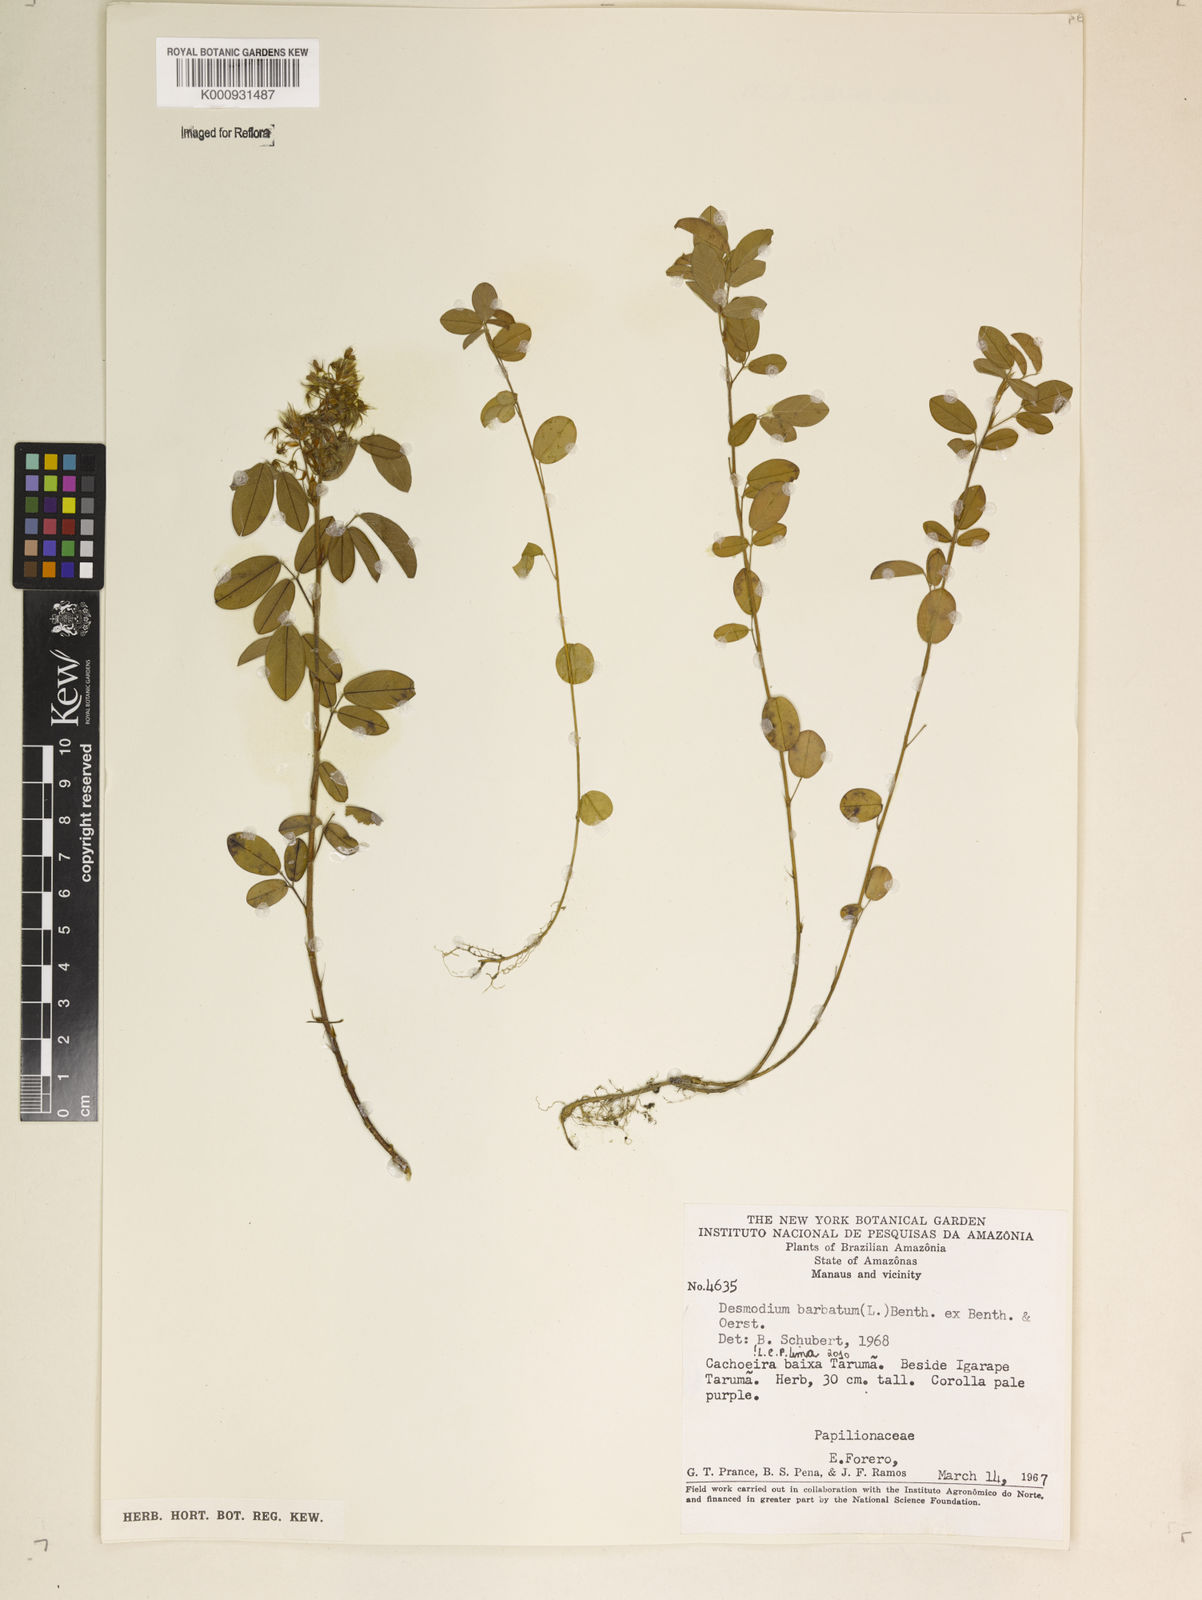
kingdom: Plantae
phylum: Tracheophyta
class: Magnoliopsida
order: Fabales
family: Fabaceae
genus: Grona
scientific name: Grona barbata
